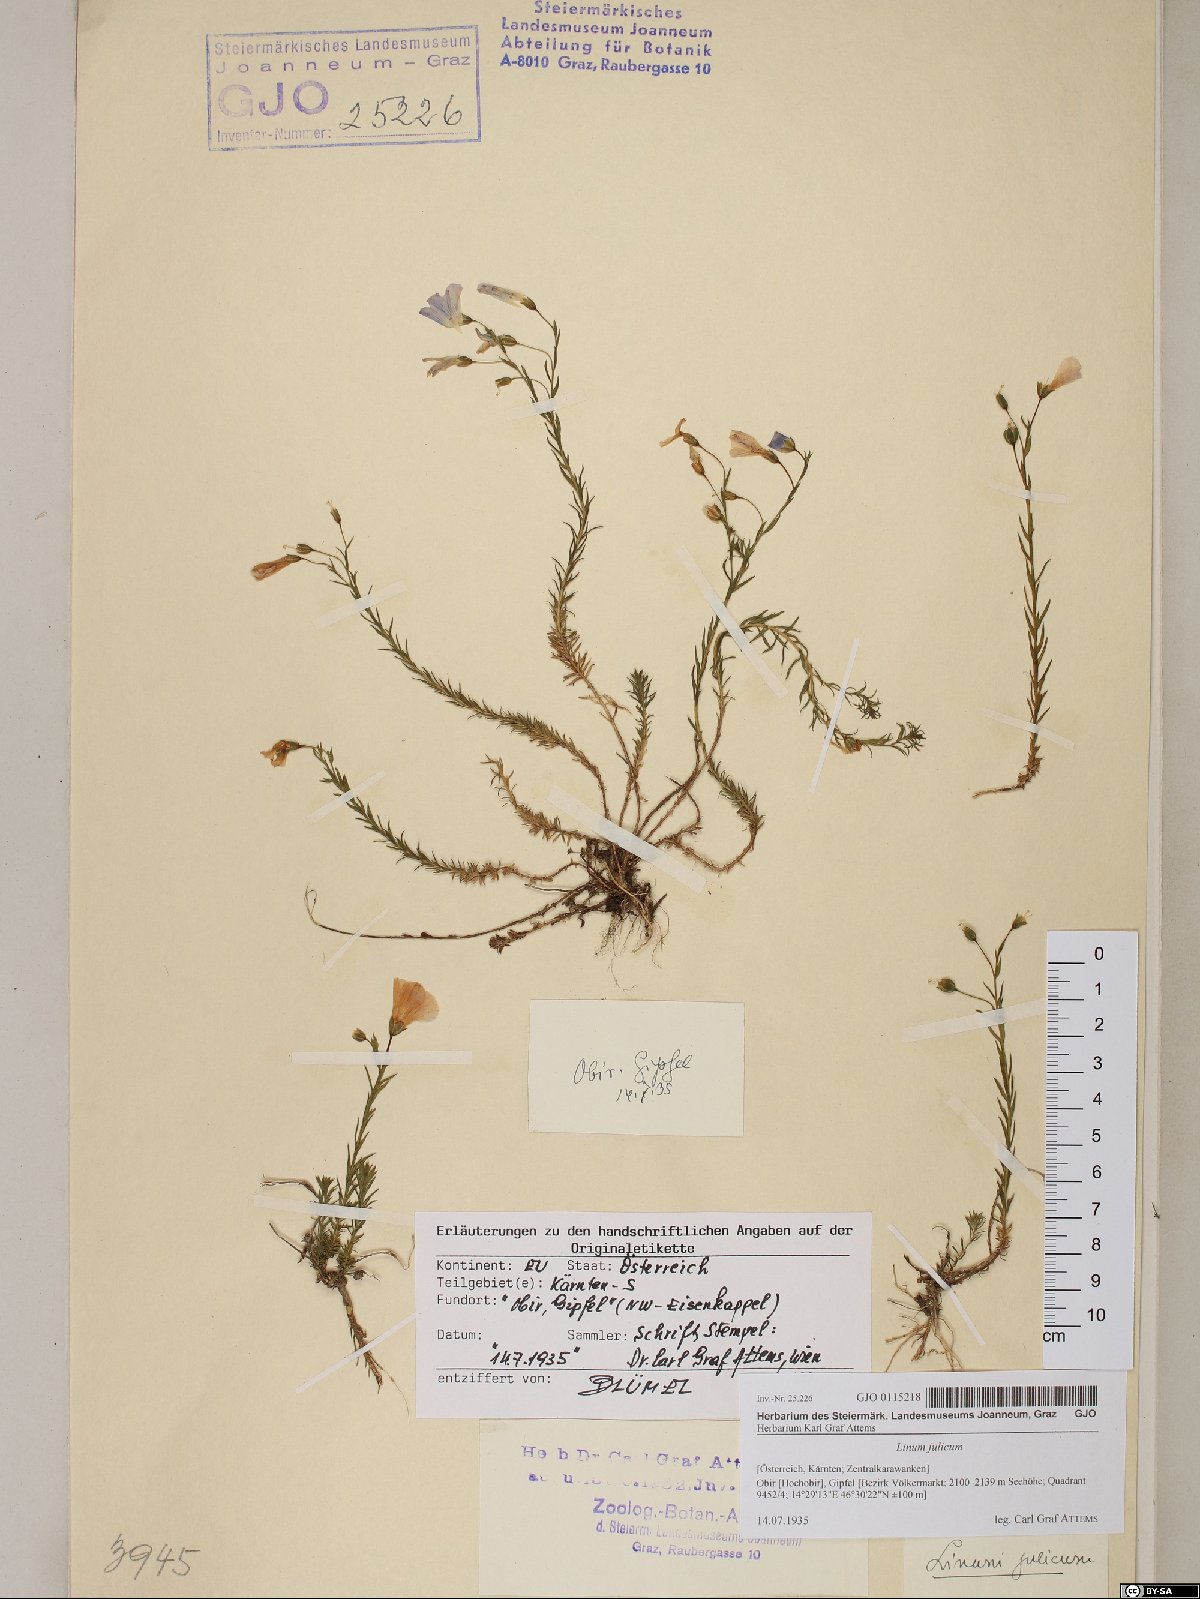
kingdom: Plantae
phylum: Tracheophyta
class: Magnoliopsida
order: Malpighiales
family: Linaceae
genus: Linum
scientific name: Linum alpinum
